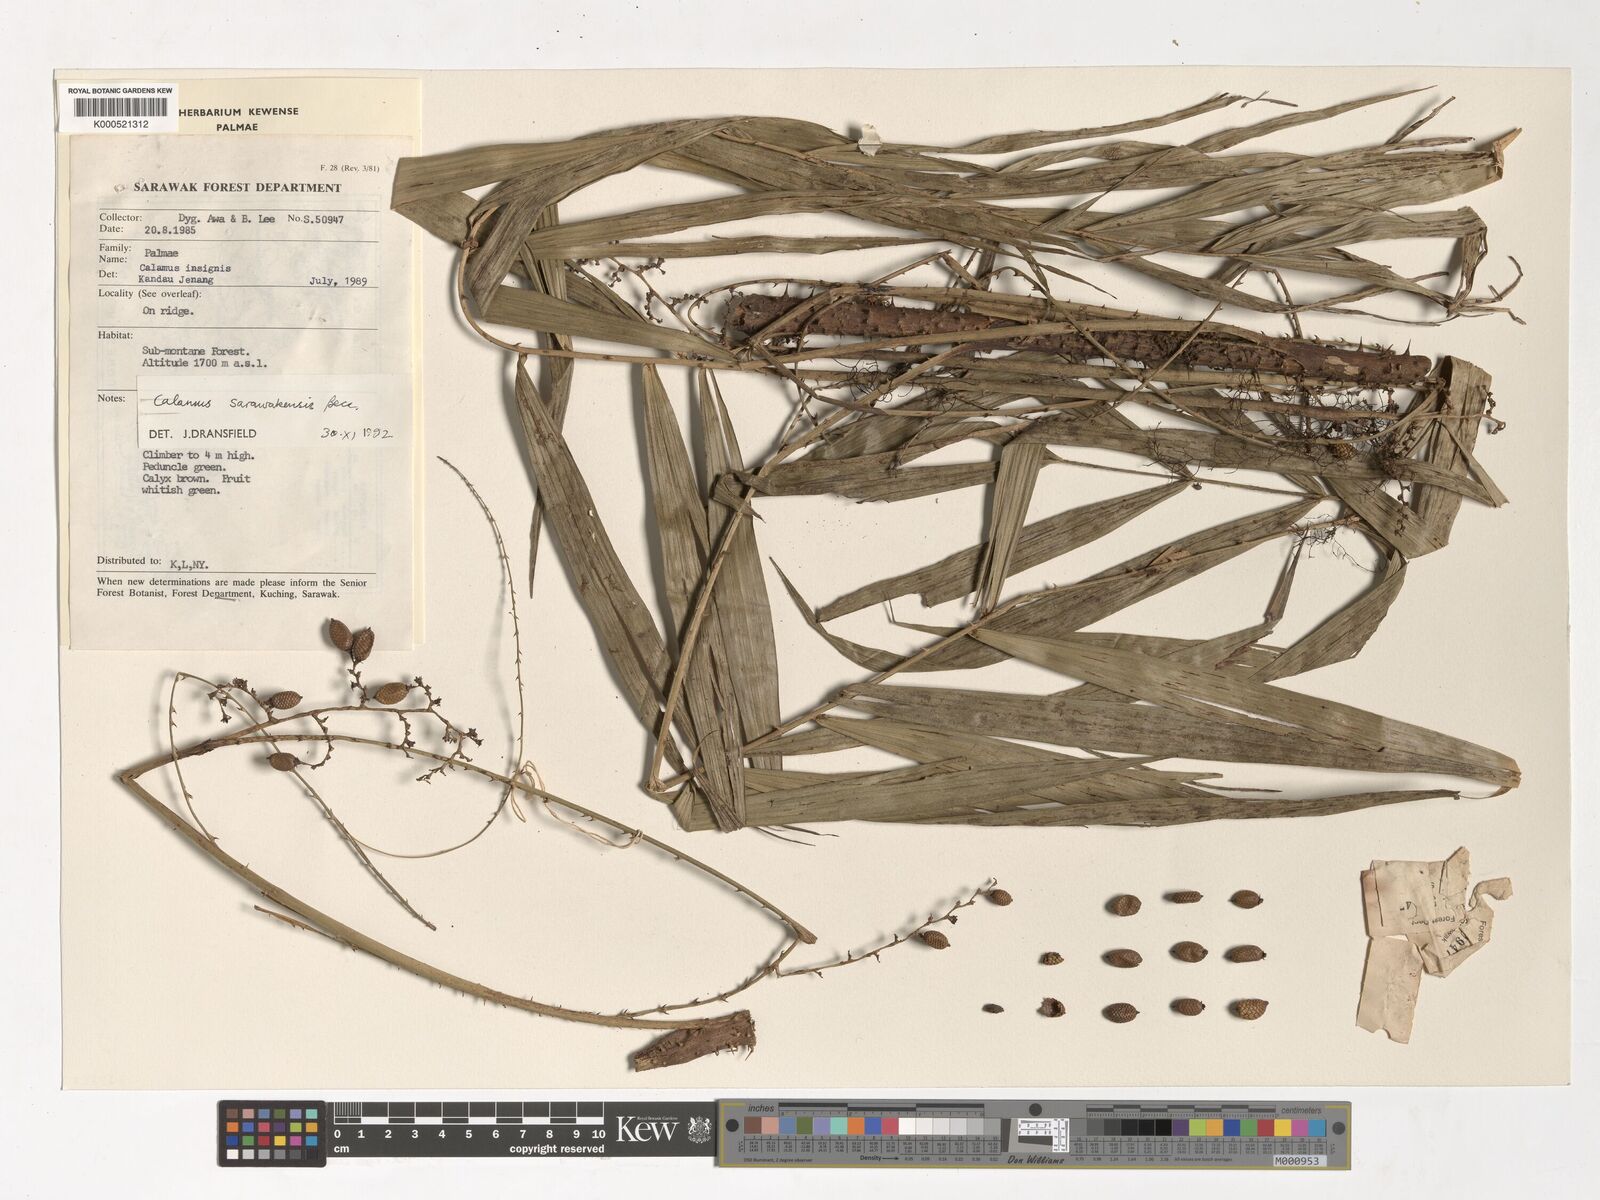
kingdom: Plantae
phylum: Tracheophyta
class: Liliopsida
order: Arecales
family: Arecaceae
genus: Calamus
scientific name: Calamus sarawakensis
